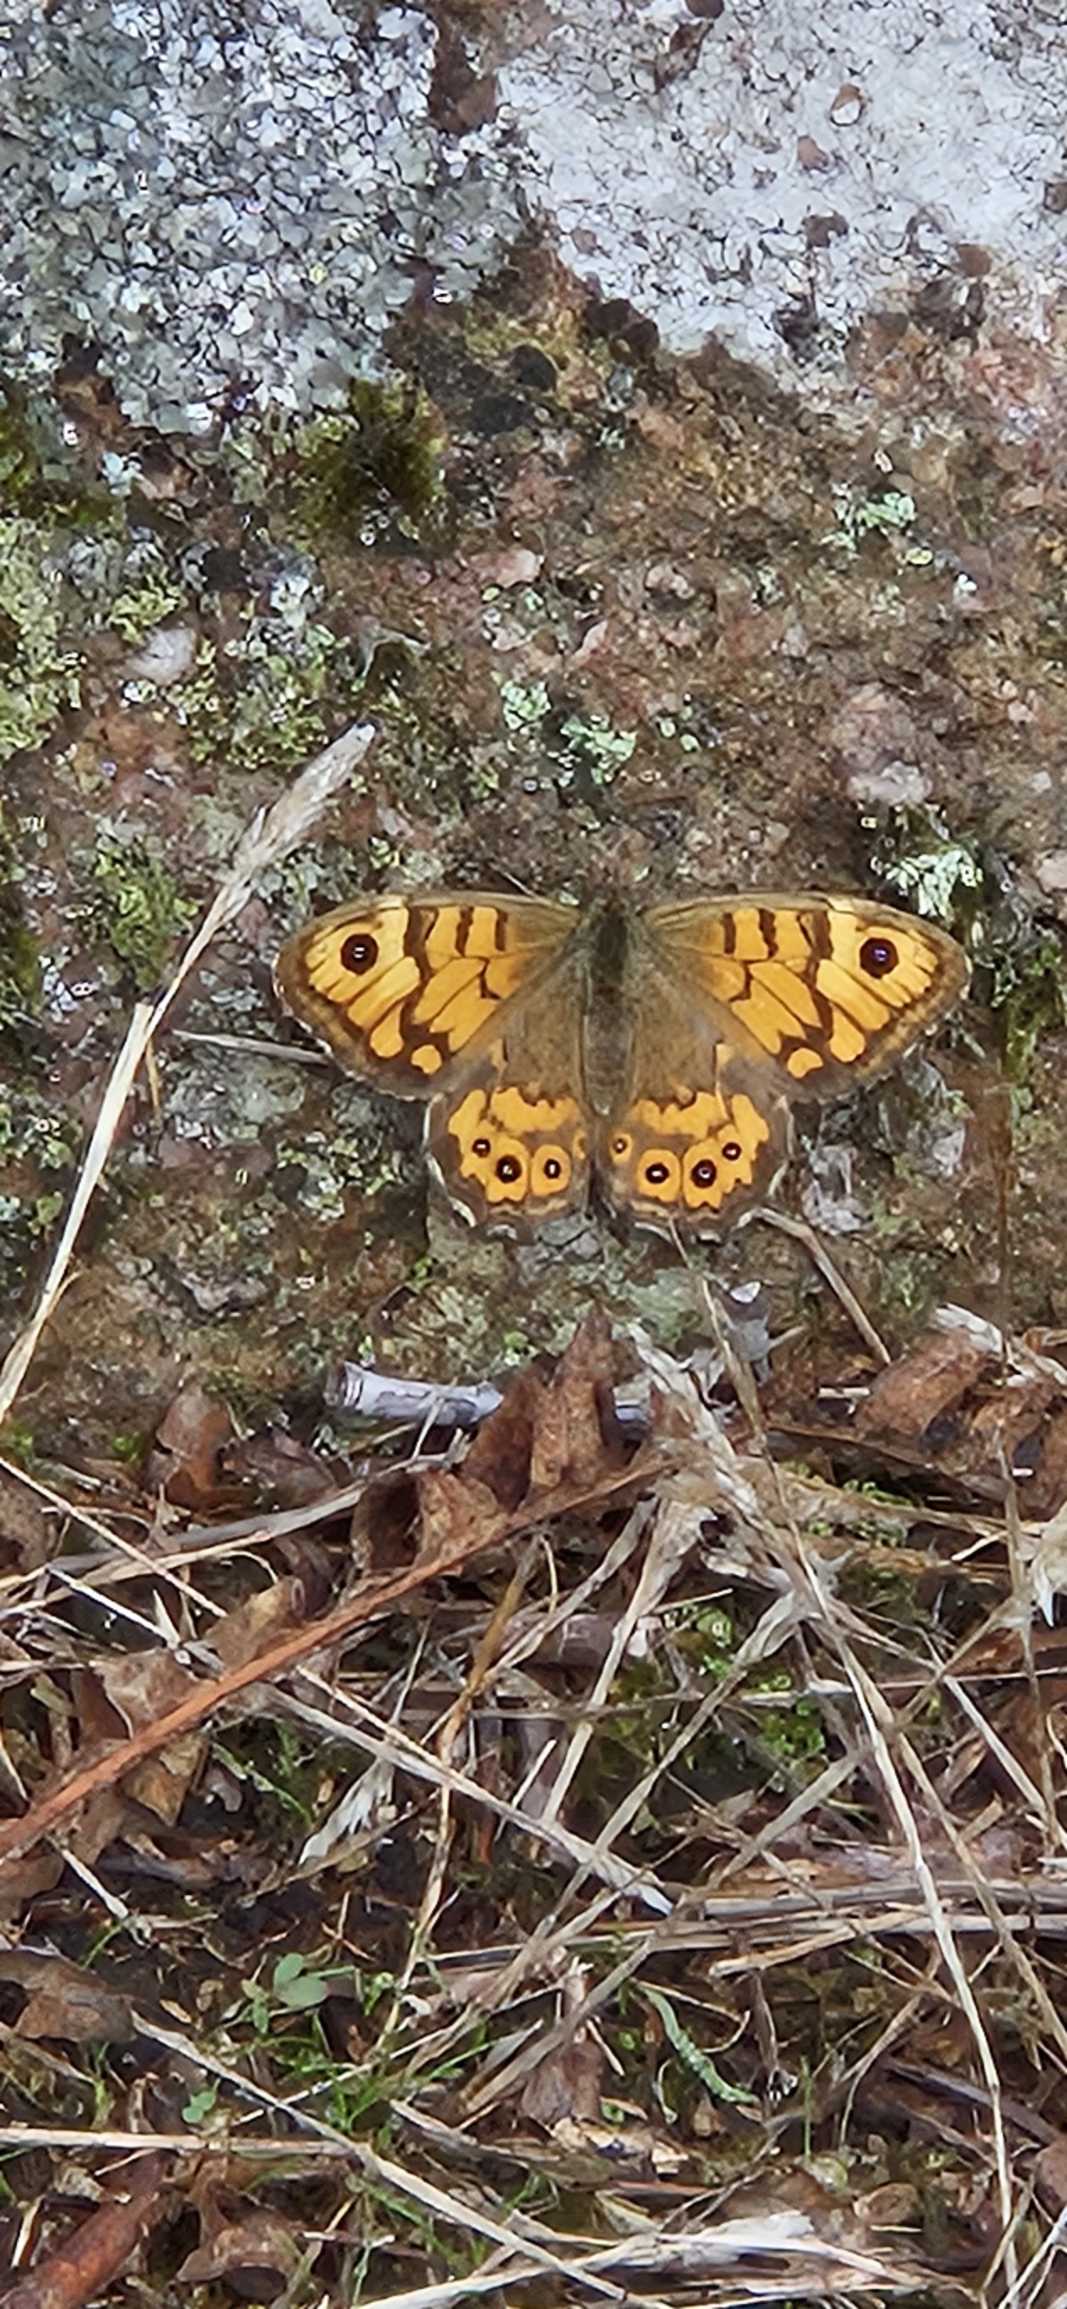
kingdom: Animalia
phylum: Arthropoda
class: Insecta
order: Lepidoptera
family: Nymphalidae
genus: Pararge
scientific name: Pararge Lasiommata megera
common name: Vejrandøje
